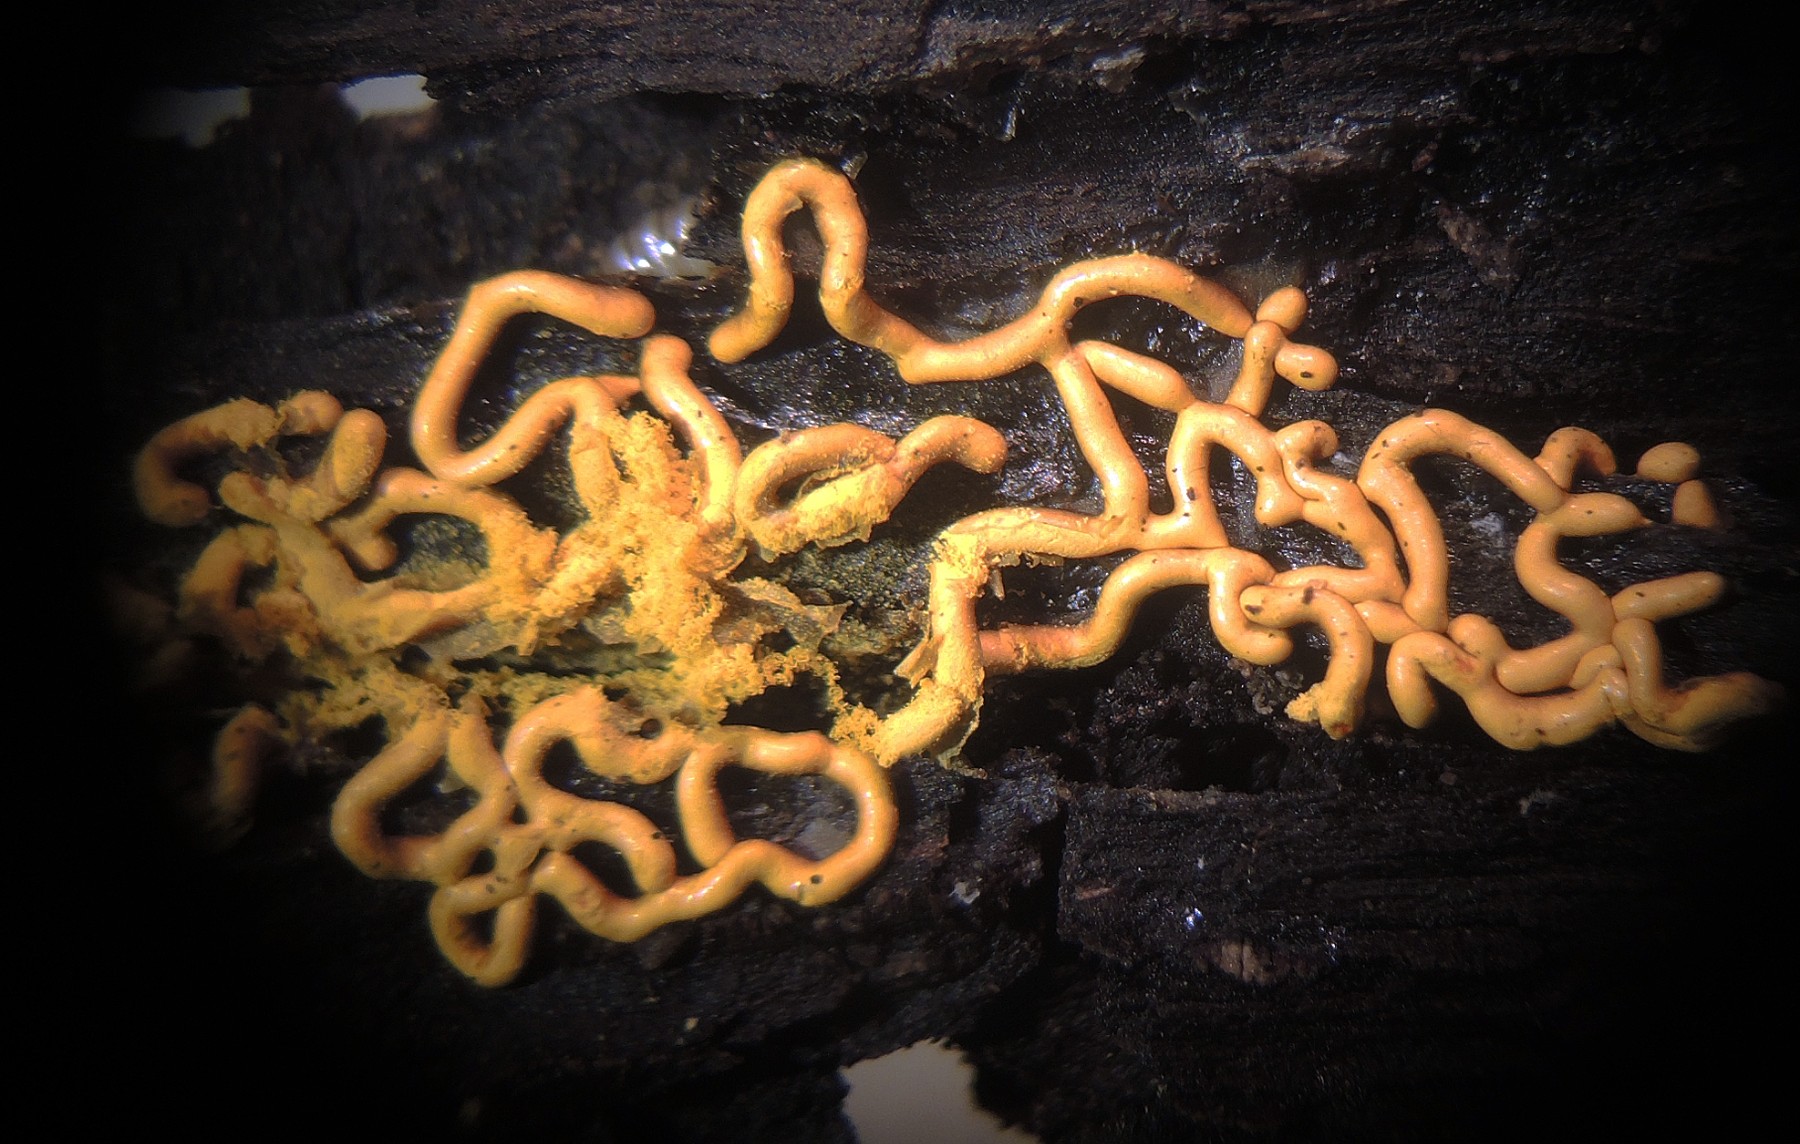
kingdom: Protozoa
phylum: Mycetozoa
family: Trichiidae
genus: Hemitrichia
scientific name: Hemitrichia serpula
